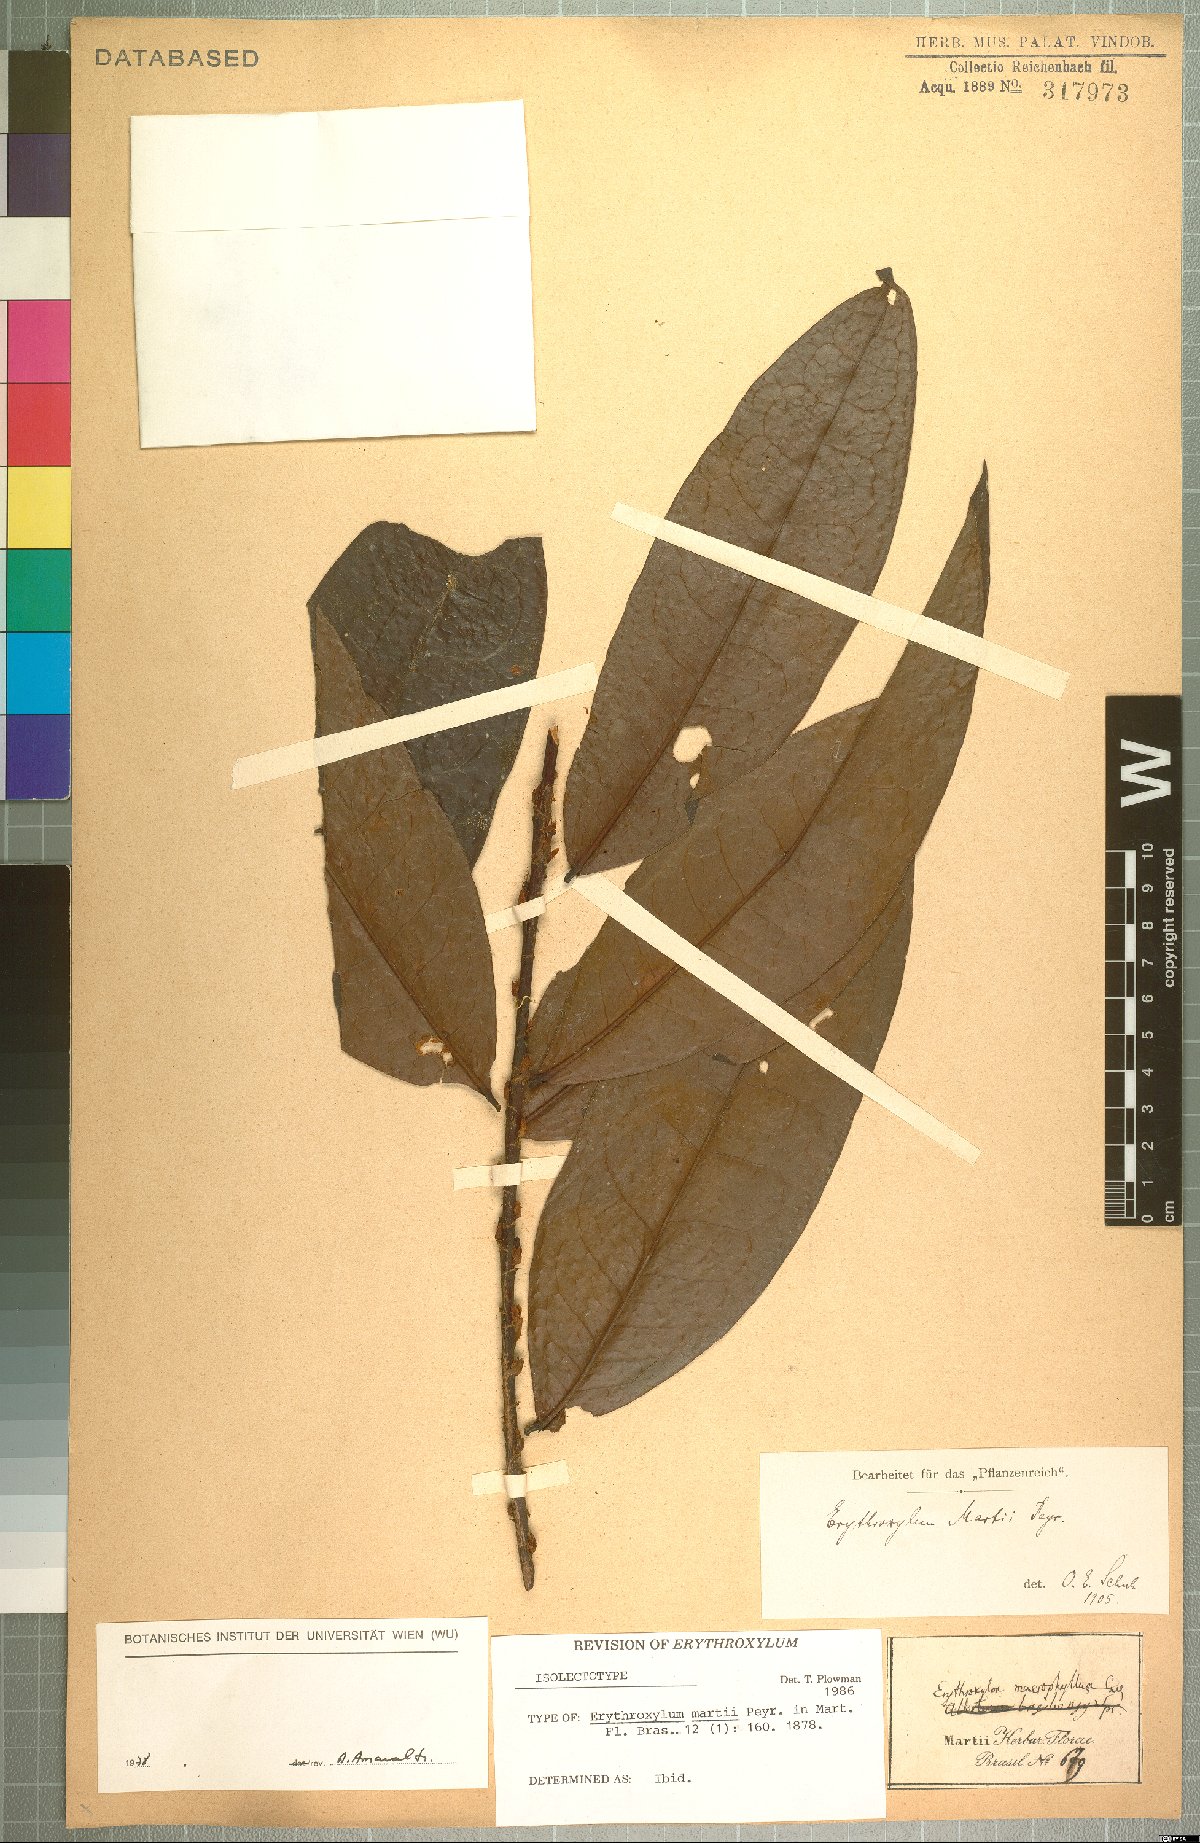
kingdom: Plantae
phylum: Tracheophyta
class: Magnoliopsida
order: Malpighiales
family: Erythroxylaceae
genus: Erythroxylum
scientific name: Erythroxylum martii
